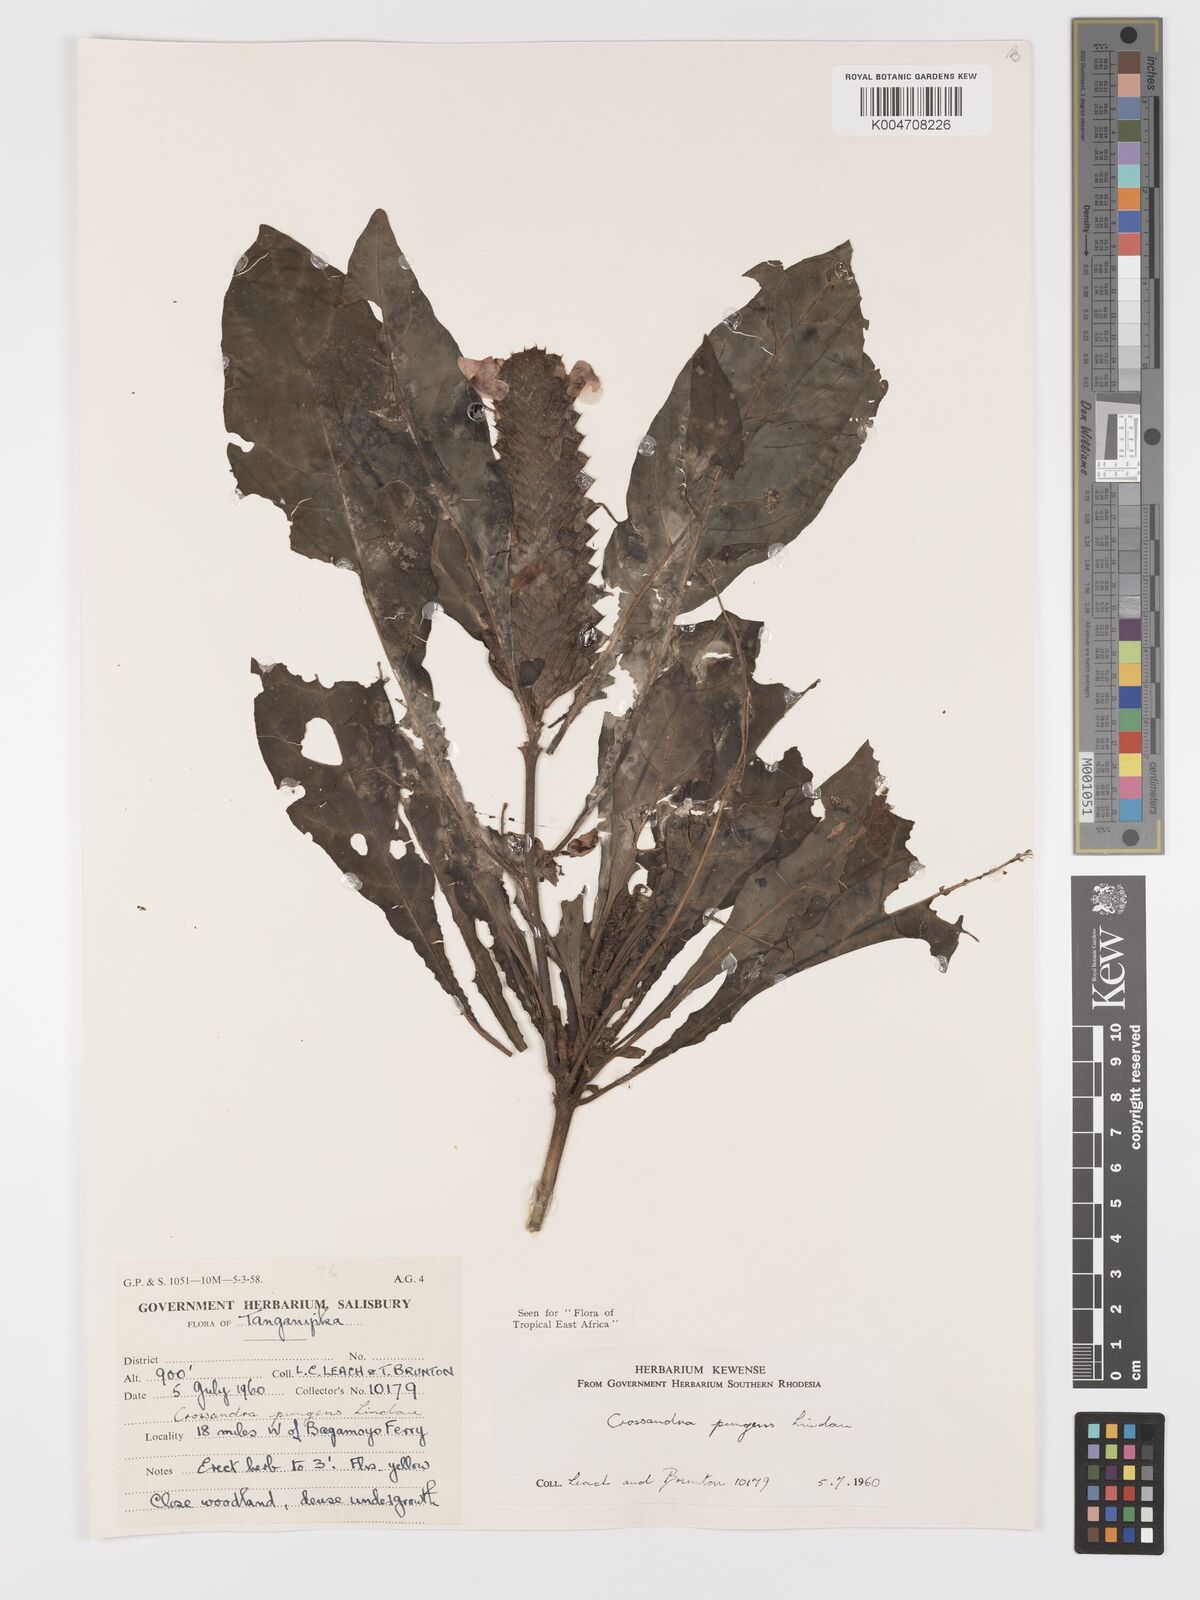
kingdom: Plantae
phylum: Tracheophyta
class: Magnoliopsida
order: Lamiales
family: Acanthaceae
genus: Crossandra
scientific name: Crossandra pungens
